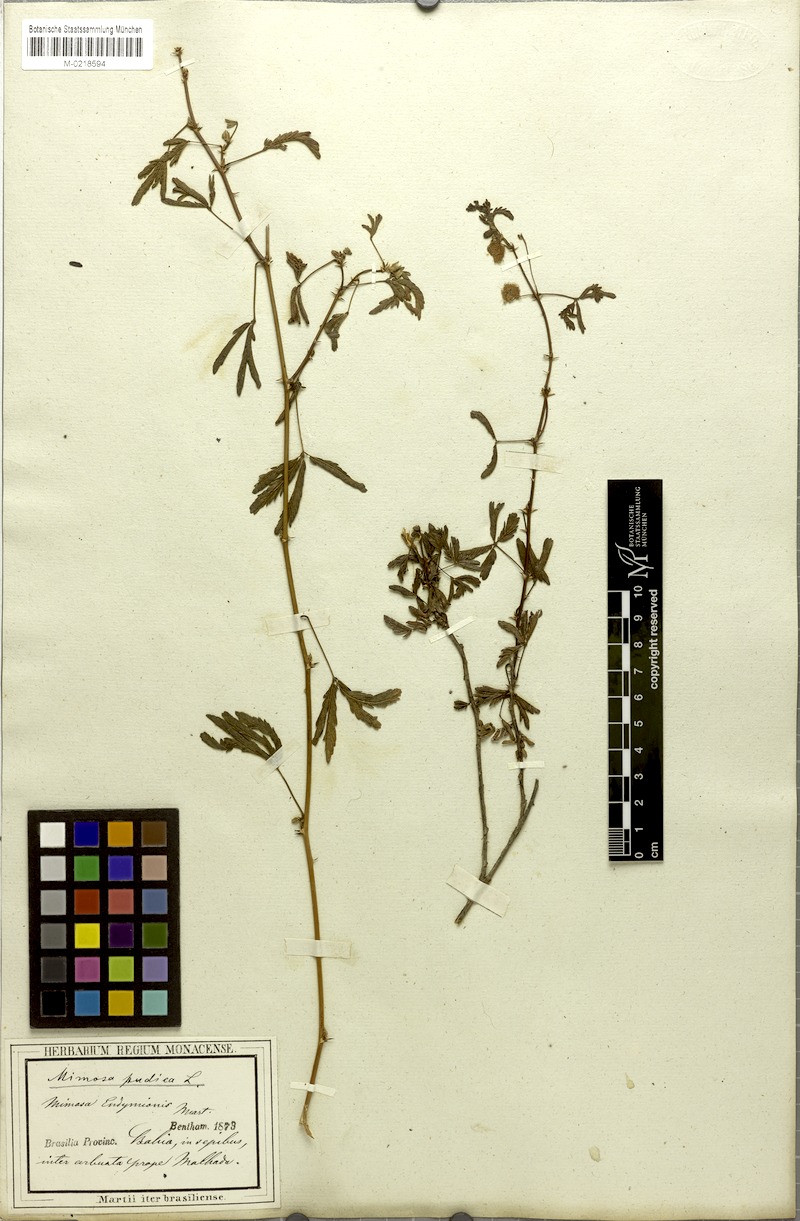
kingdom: Plantae
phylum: Tracheophyta
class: Magnoliopsida
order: Fabales
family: Fabaceae
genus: Mimosa
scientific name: Mimosa pudica
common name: Sensitive plant
